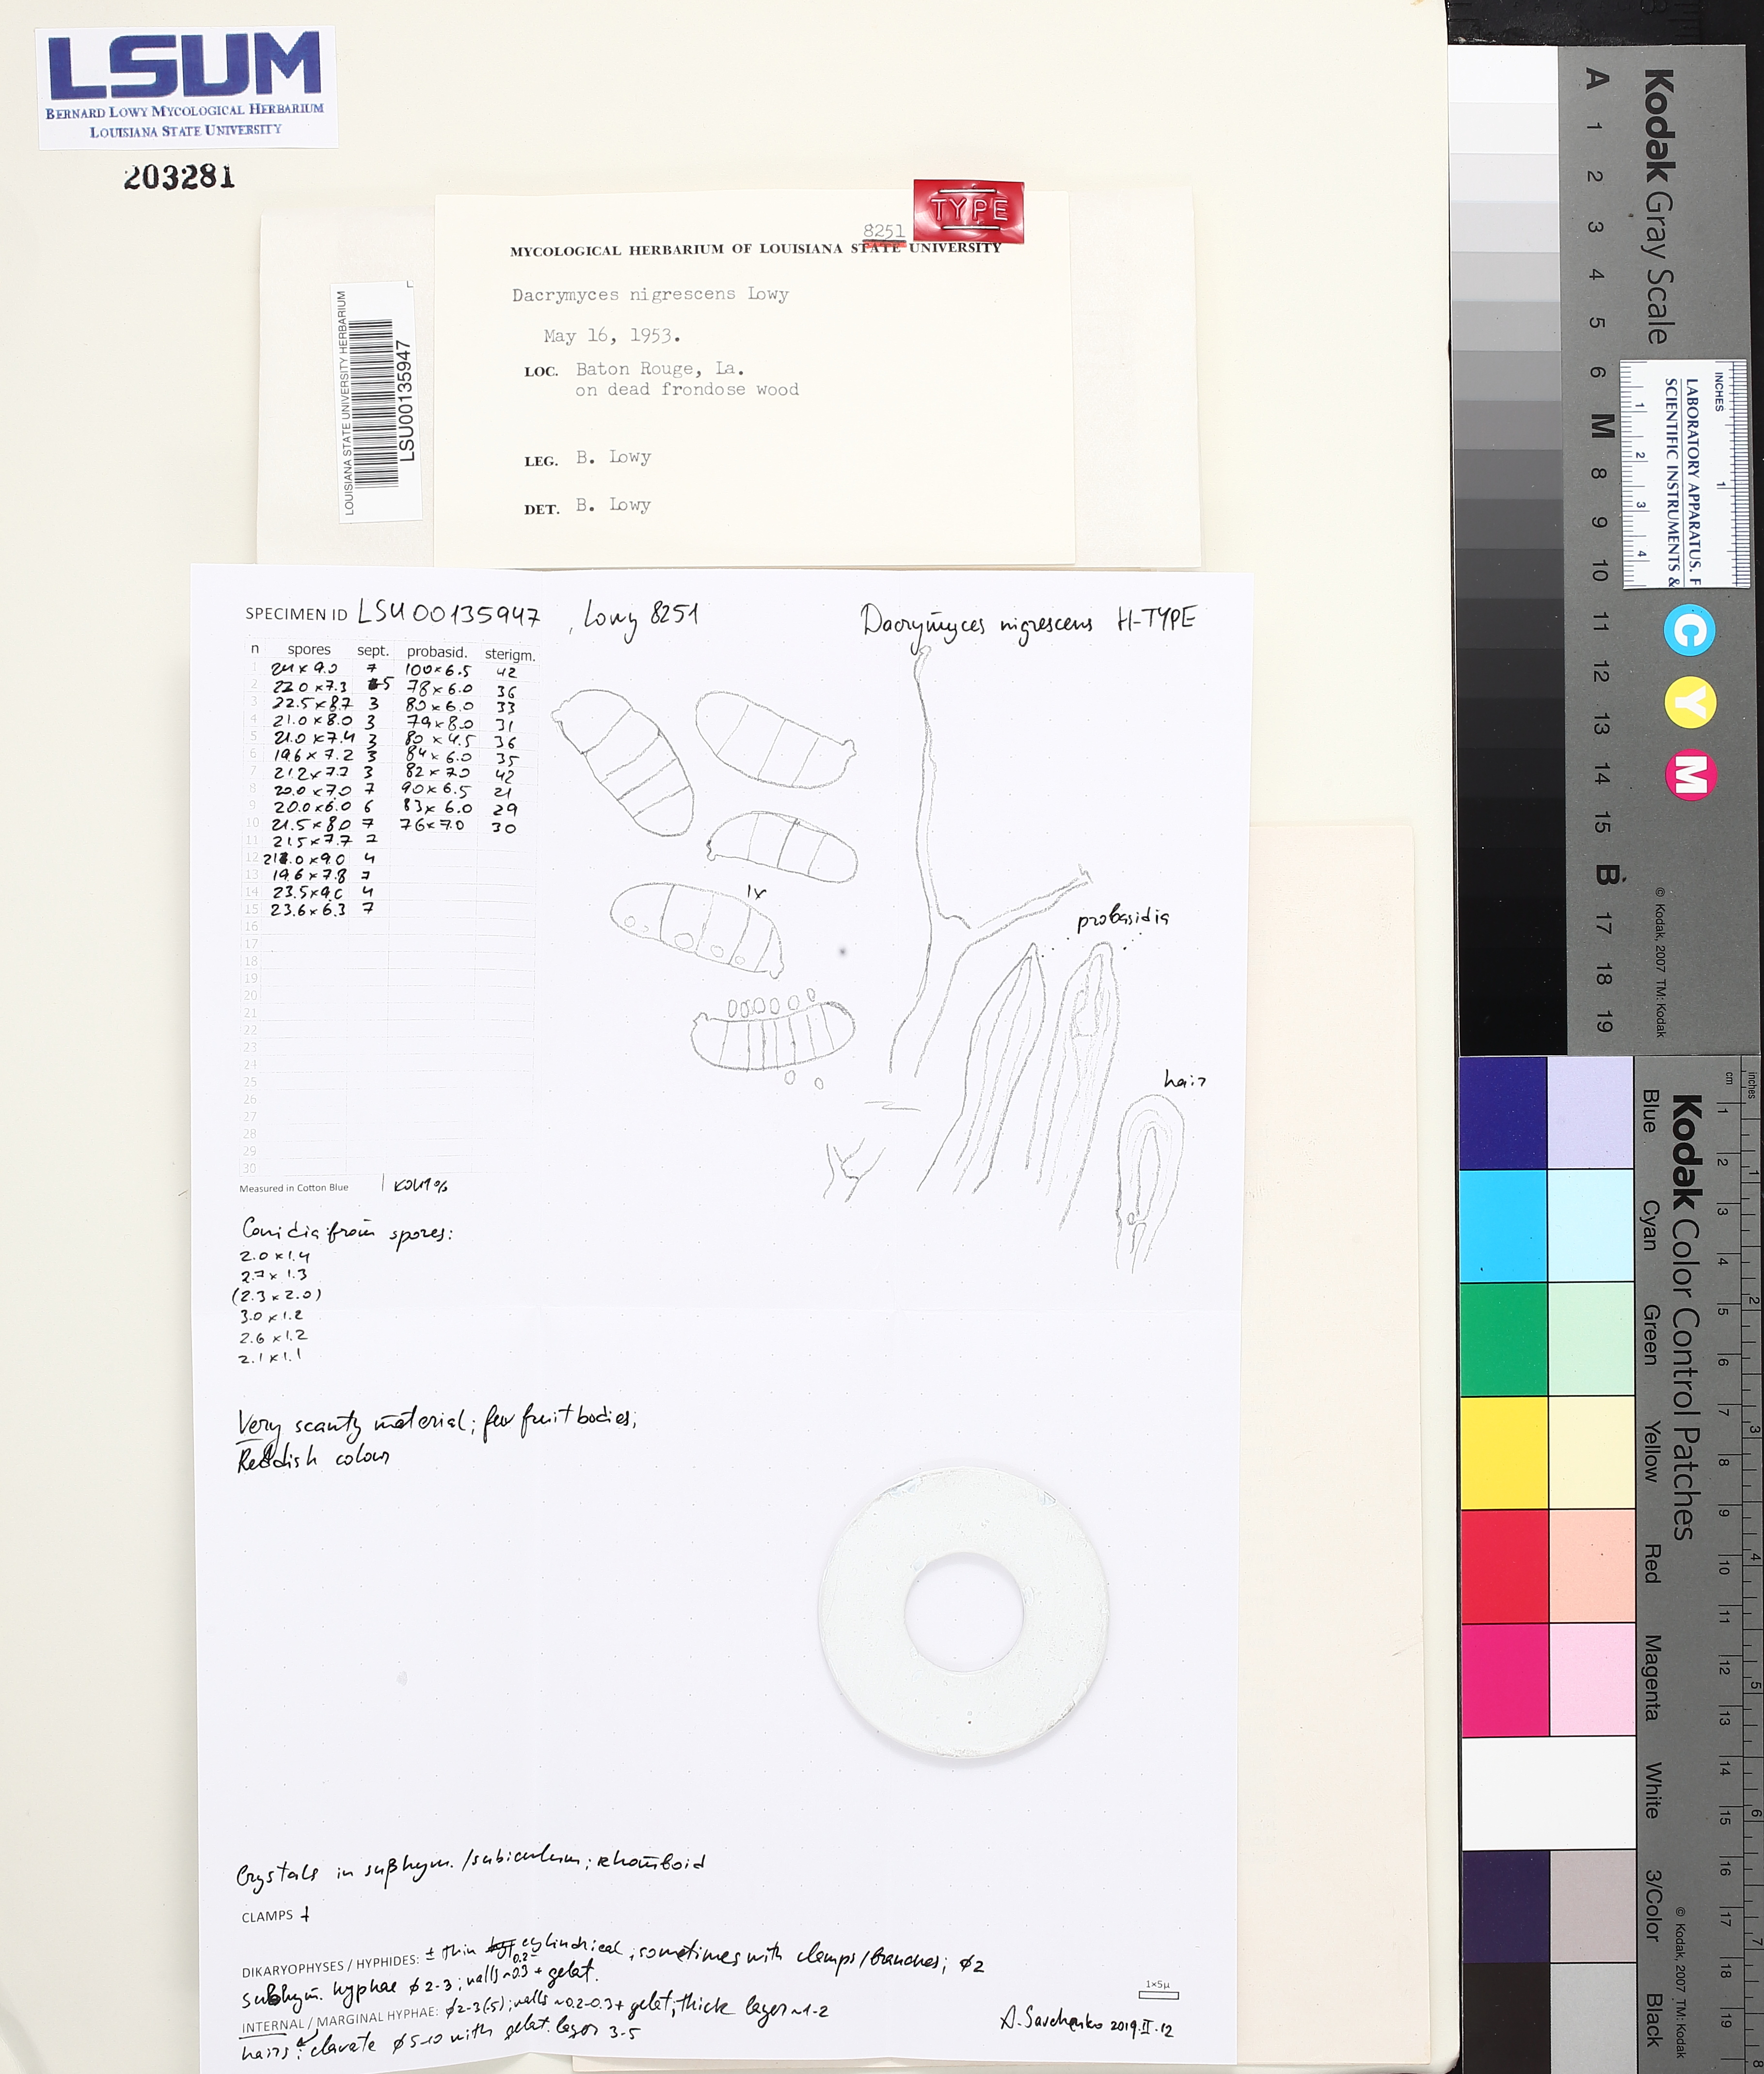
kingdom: Fungi
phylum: Basidiomycota
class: Dacrymycetes
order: Dacrymycetales
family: Dacrymycetaceae
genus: Dacrymyces
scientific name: Dacrymyces nigrescens
